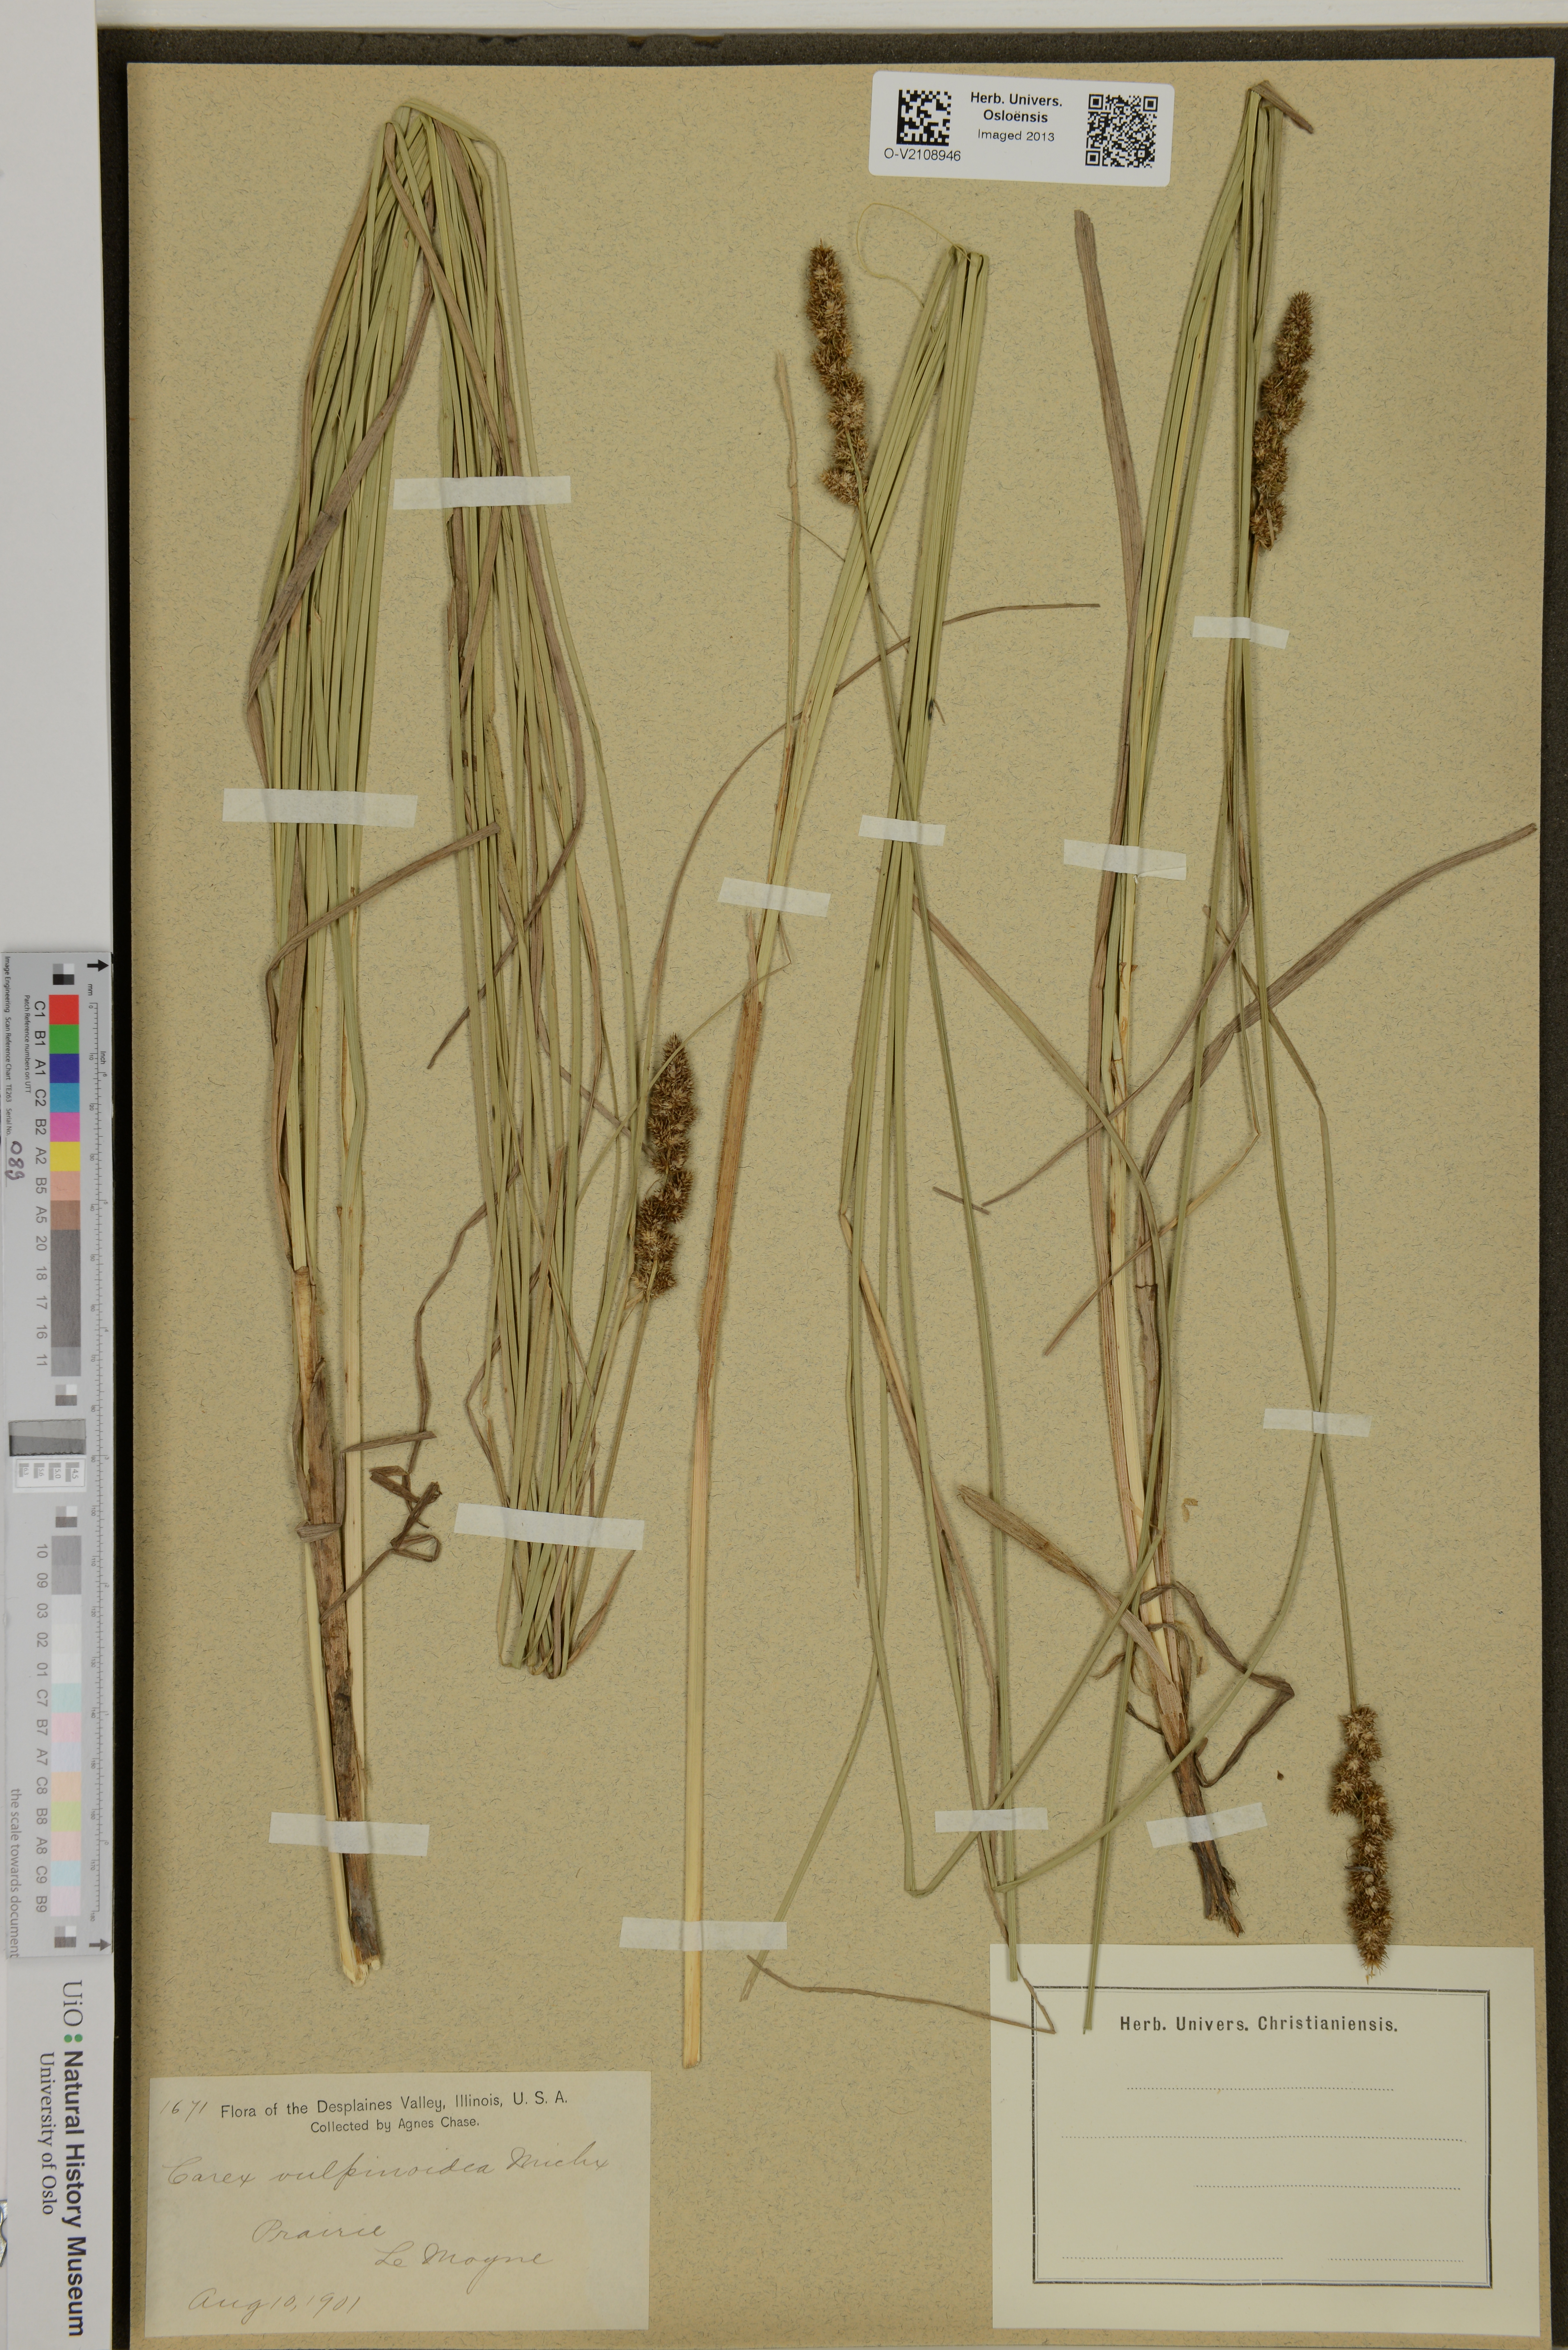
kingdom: Plantae
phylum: Tracheophyta
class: Liliopsida
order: Poales
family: Cyperaceae
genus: Carex
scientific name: Carex vulpinoidea
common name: American fox-sedge
